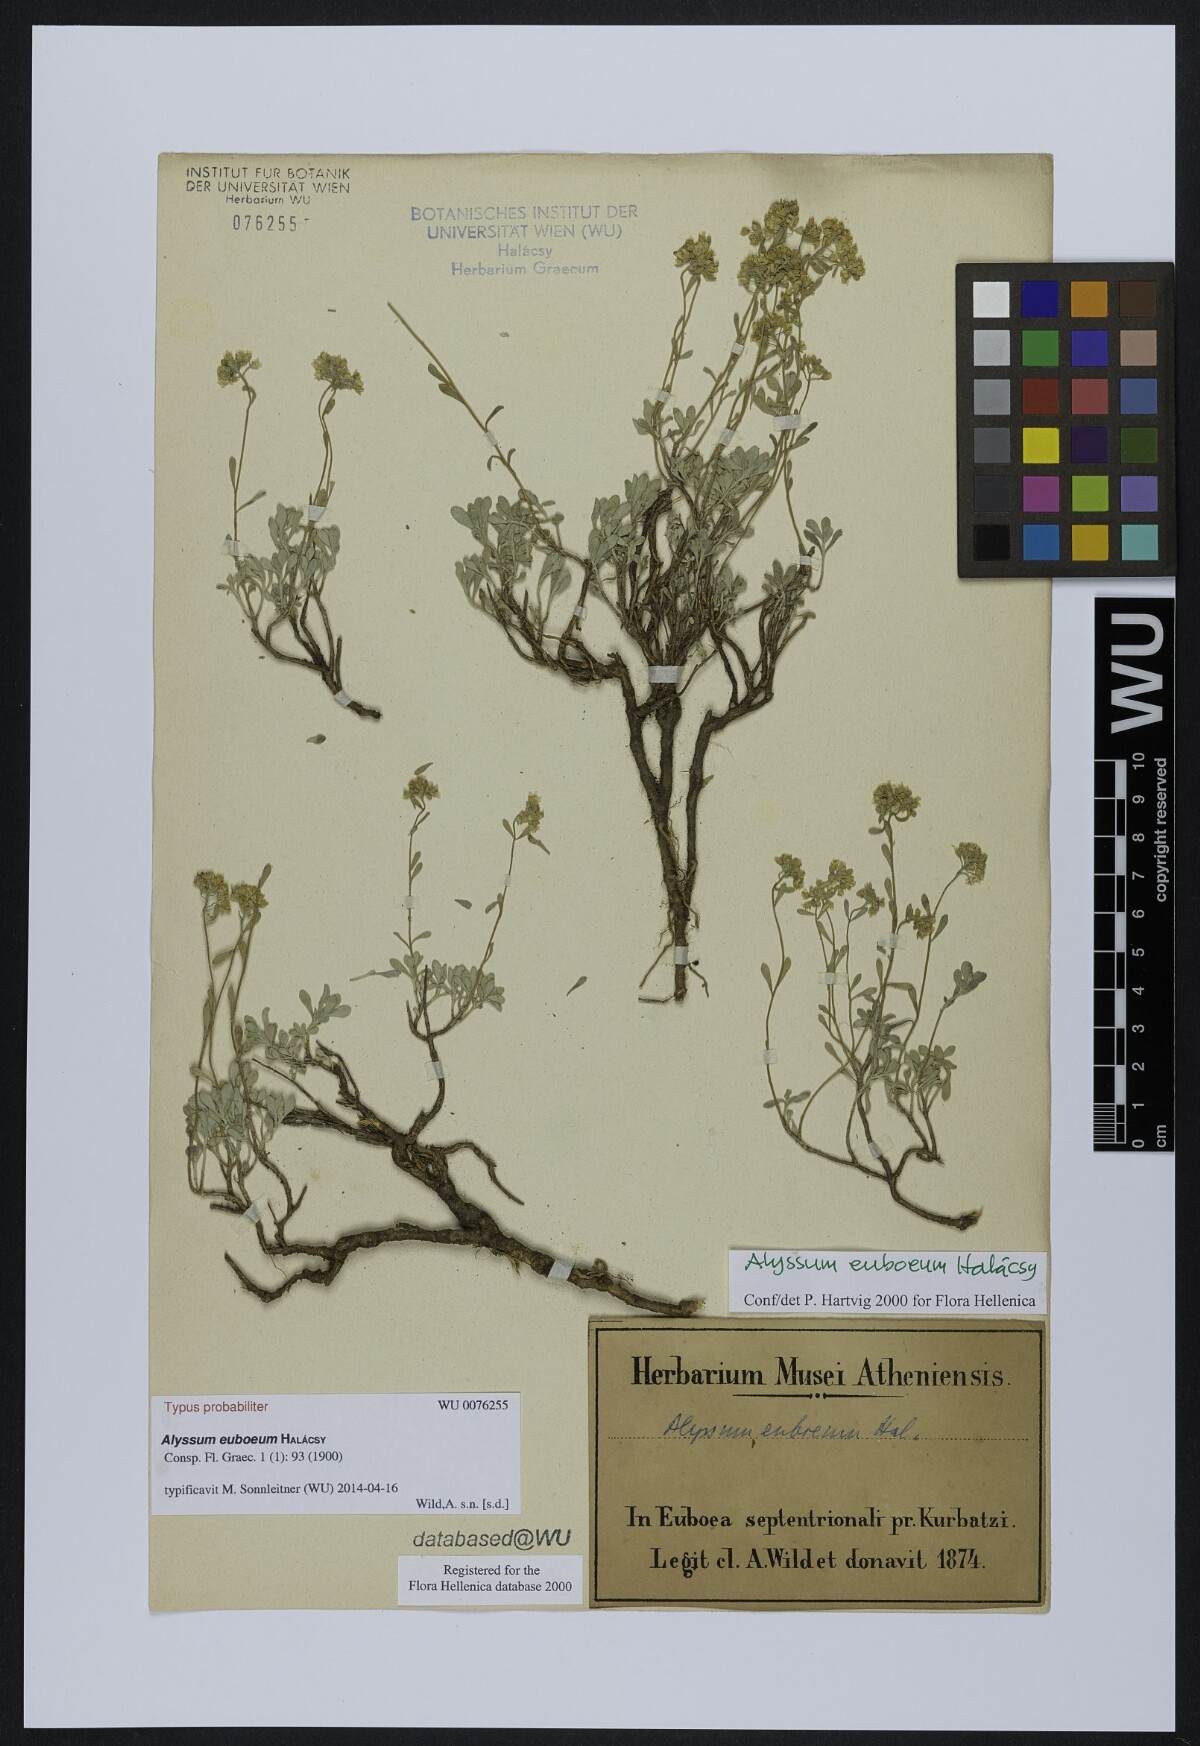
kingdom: Plantae
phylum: Tracheophyta
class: Magnoliopsida
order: Brassicales
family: Brassicaceae
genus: Odontarrhena
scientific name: Odontarrhena euboea
